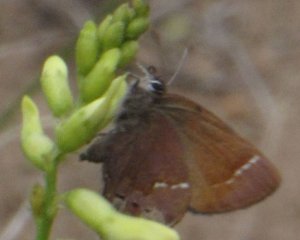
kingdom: Animalia
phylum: Arthropoda
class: Insecta
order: Lepidoptera
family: Lycaenidae
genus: Mitoura
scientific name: Mitoura gryneus
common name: Juniper Hairstreak
